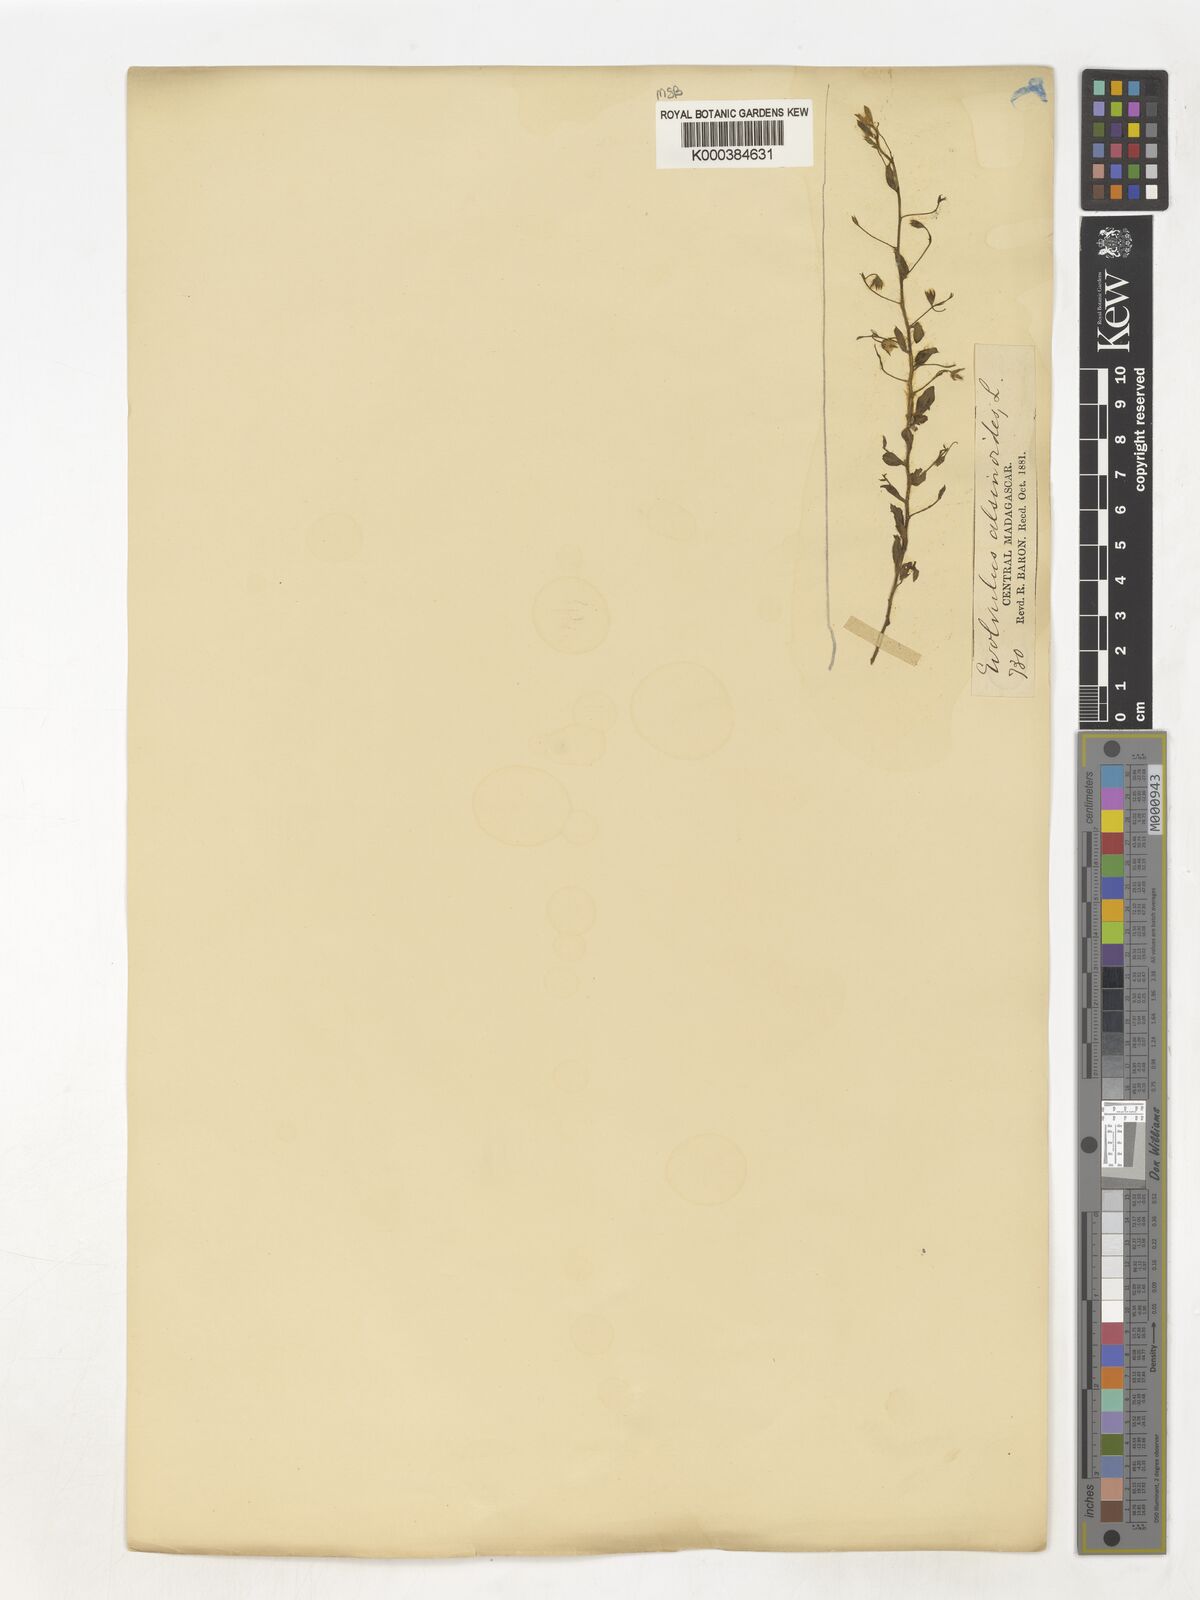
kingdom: Plantae
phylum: Tracheophyta
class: Magnoliopsida
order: Solanales
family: Convolvulaceae
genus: Evolvulus
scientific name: Evolvulus alsinoides
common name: Slender dwarf morning-glory
